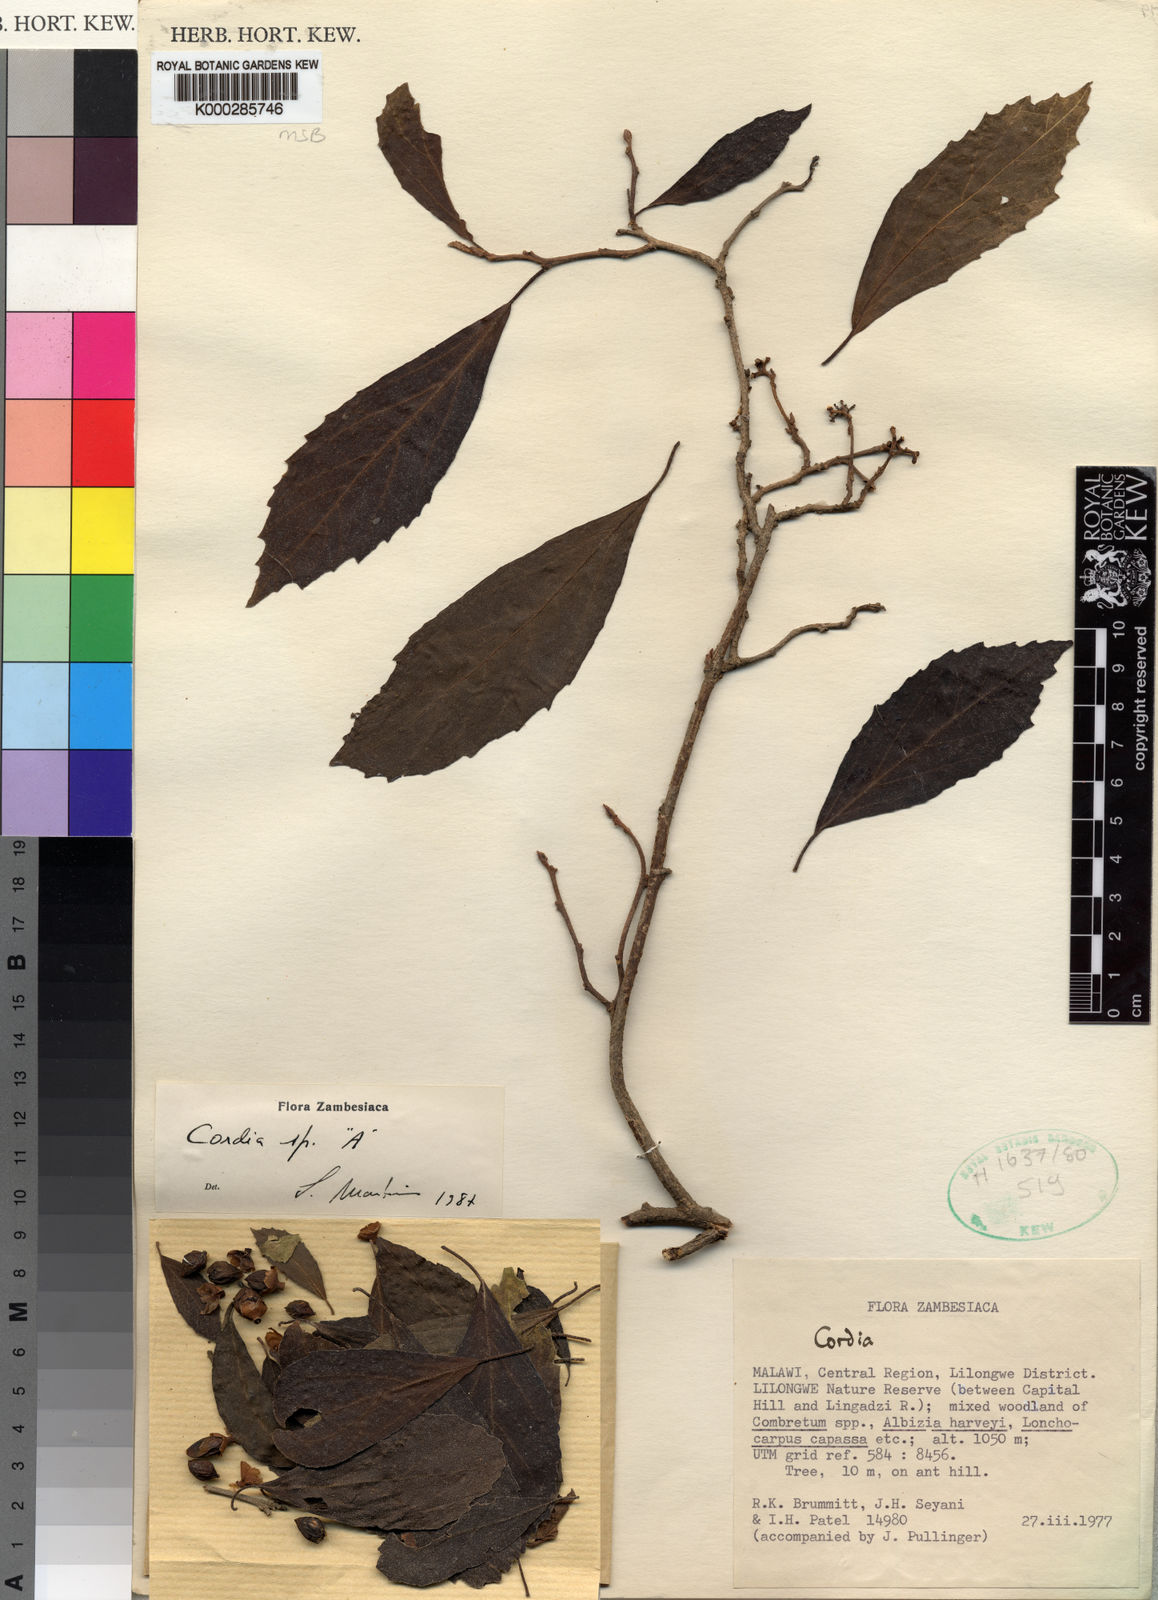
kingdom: Plantae
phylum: Tracheophyta
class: Magnoliopsida
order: Boraginales
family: Cordiaceae
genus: Cordia
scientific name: Cordia
